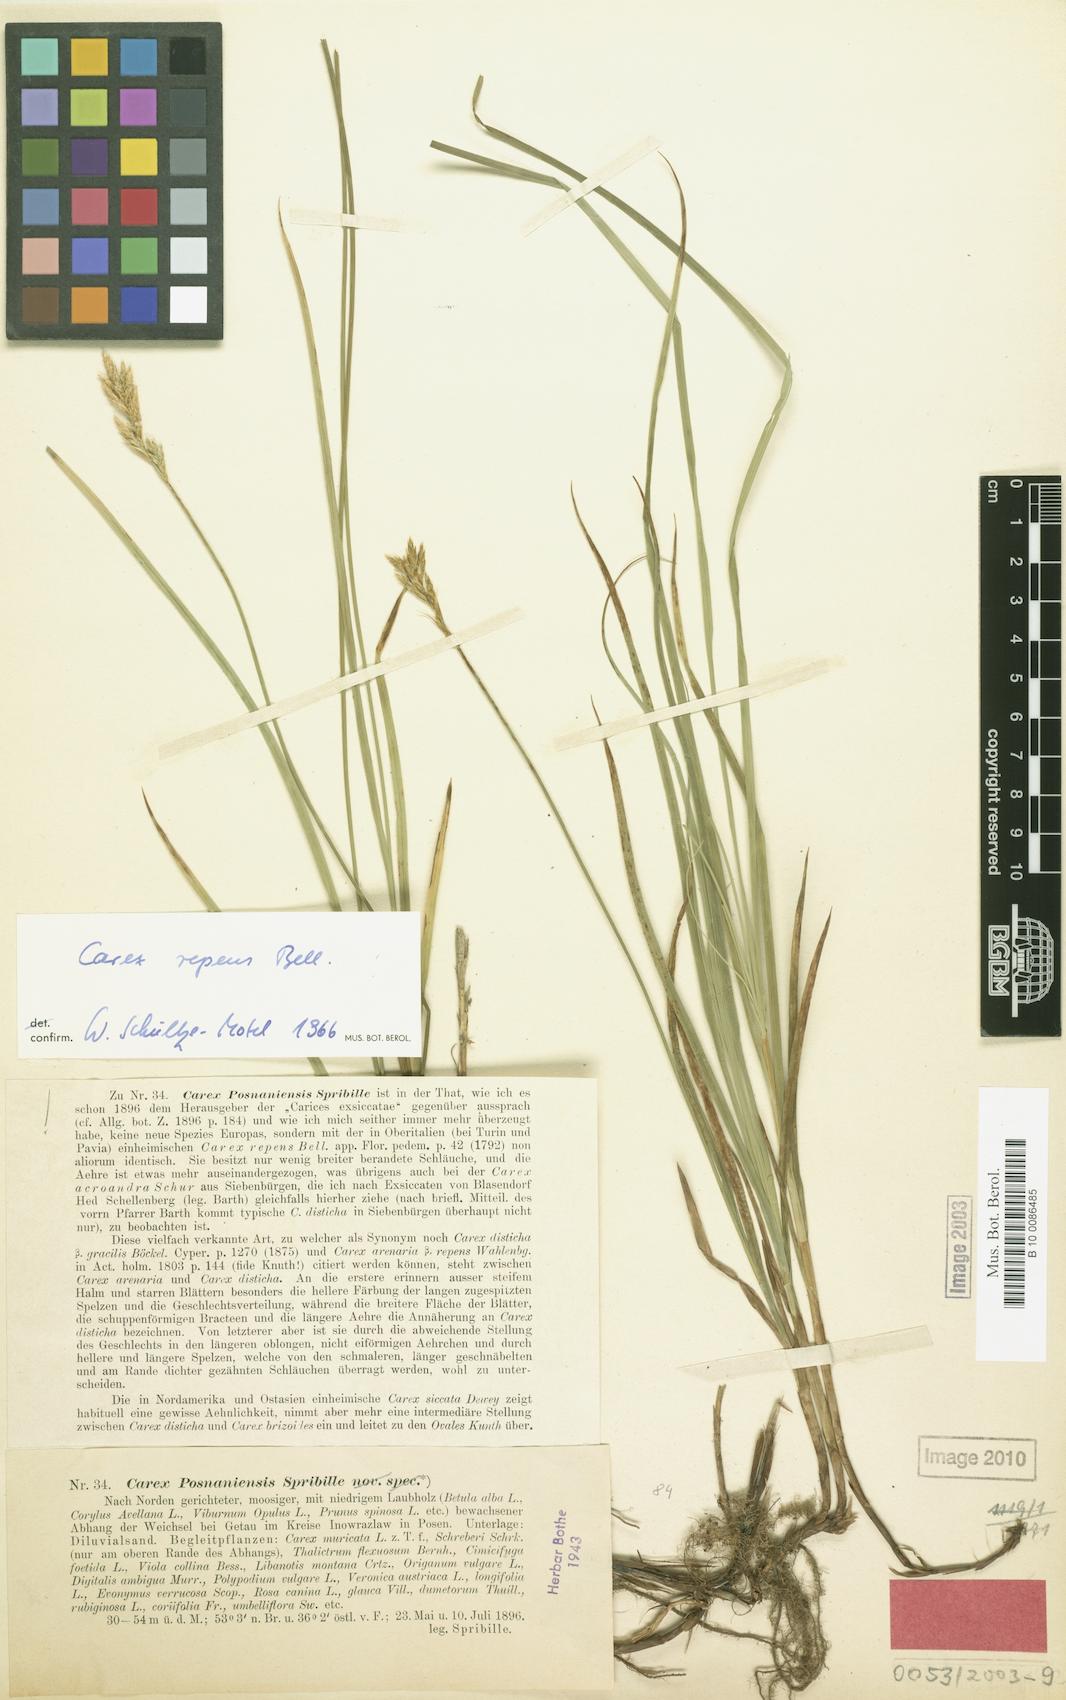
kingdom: Plantae
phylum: Tracheophyta
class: Liliopsida
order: Poales
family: Cyperaceae
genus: Carex
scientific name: Carex repens
